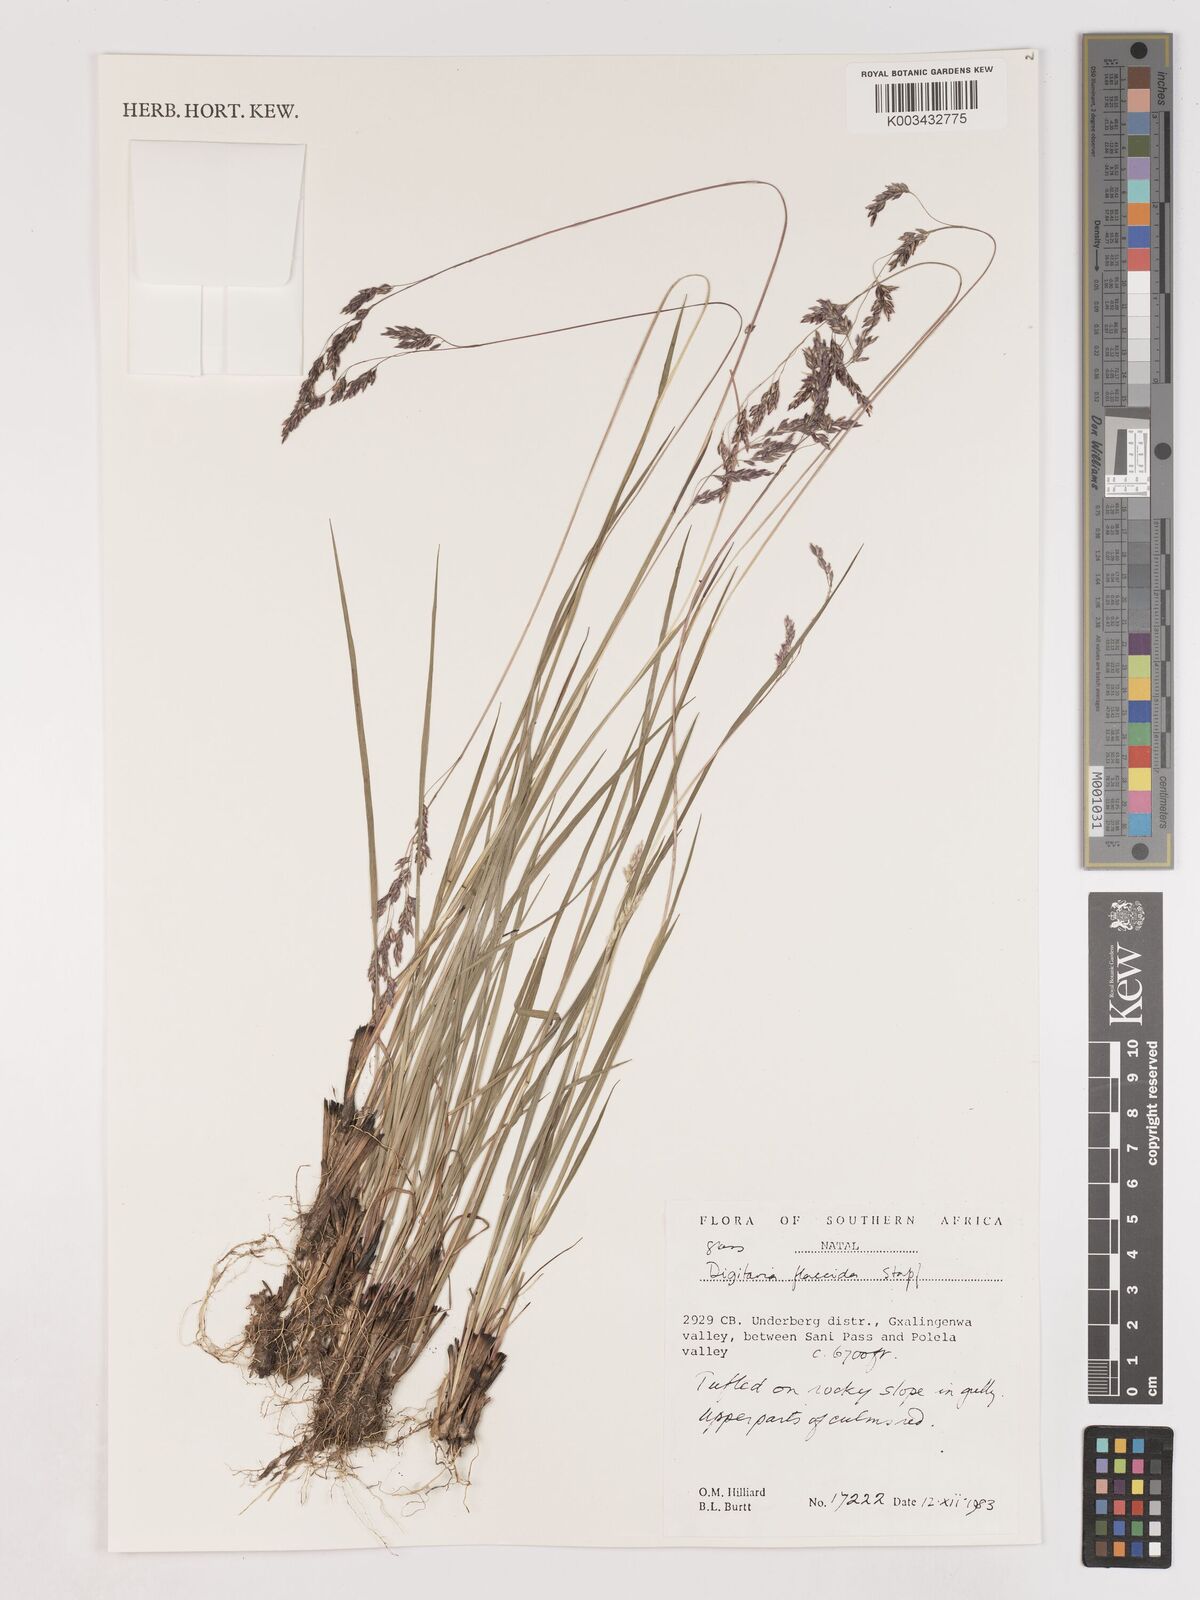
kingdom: Plantae
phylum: Tracheophyta
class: Liliopsida
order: Poales
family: Poaceae
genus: Digitaria
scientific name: Digitaria flaccida
